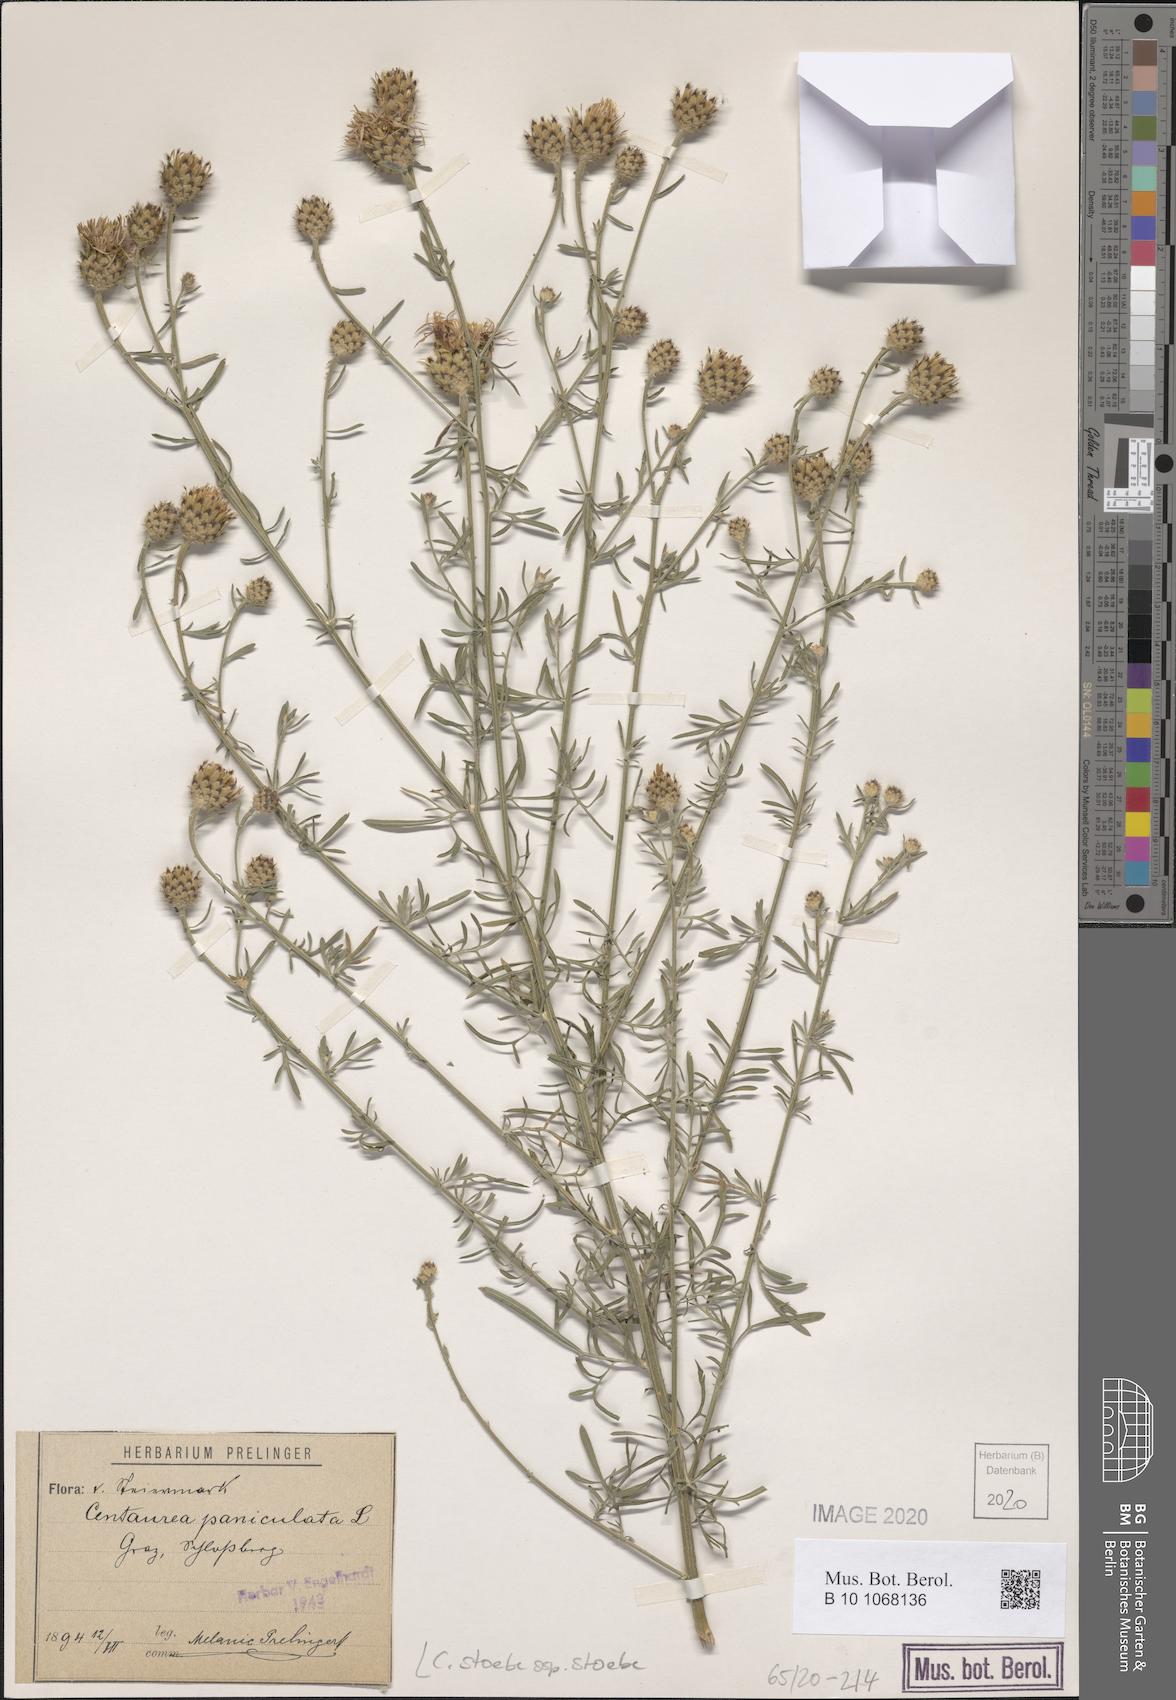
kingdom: Plantae
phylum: Tracheophyta
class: Magnoliopsida
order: Asterales
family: Asteraceae
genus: Centaurea
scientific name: Centaurea stoebe
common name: Spotted knapweed
